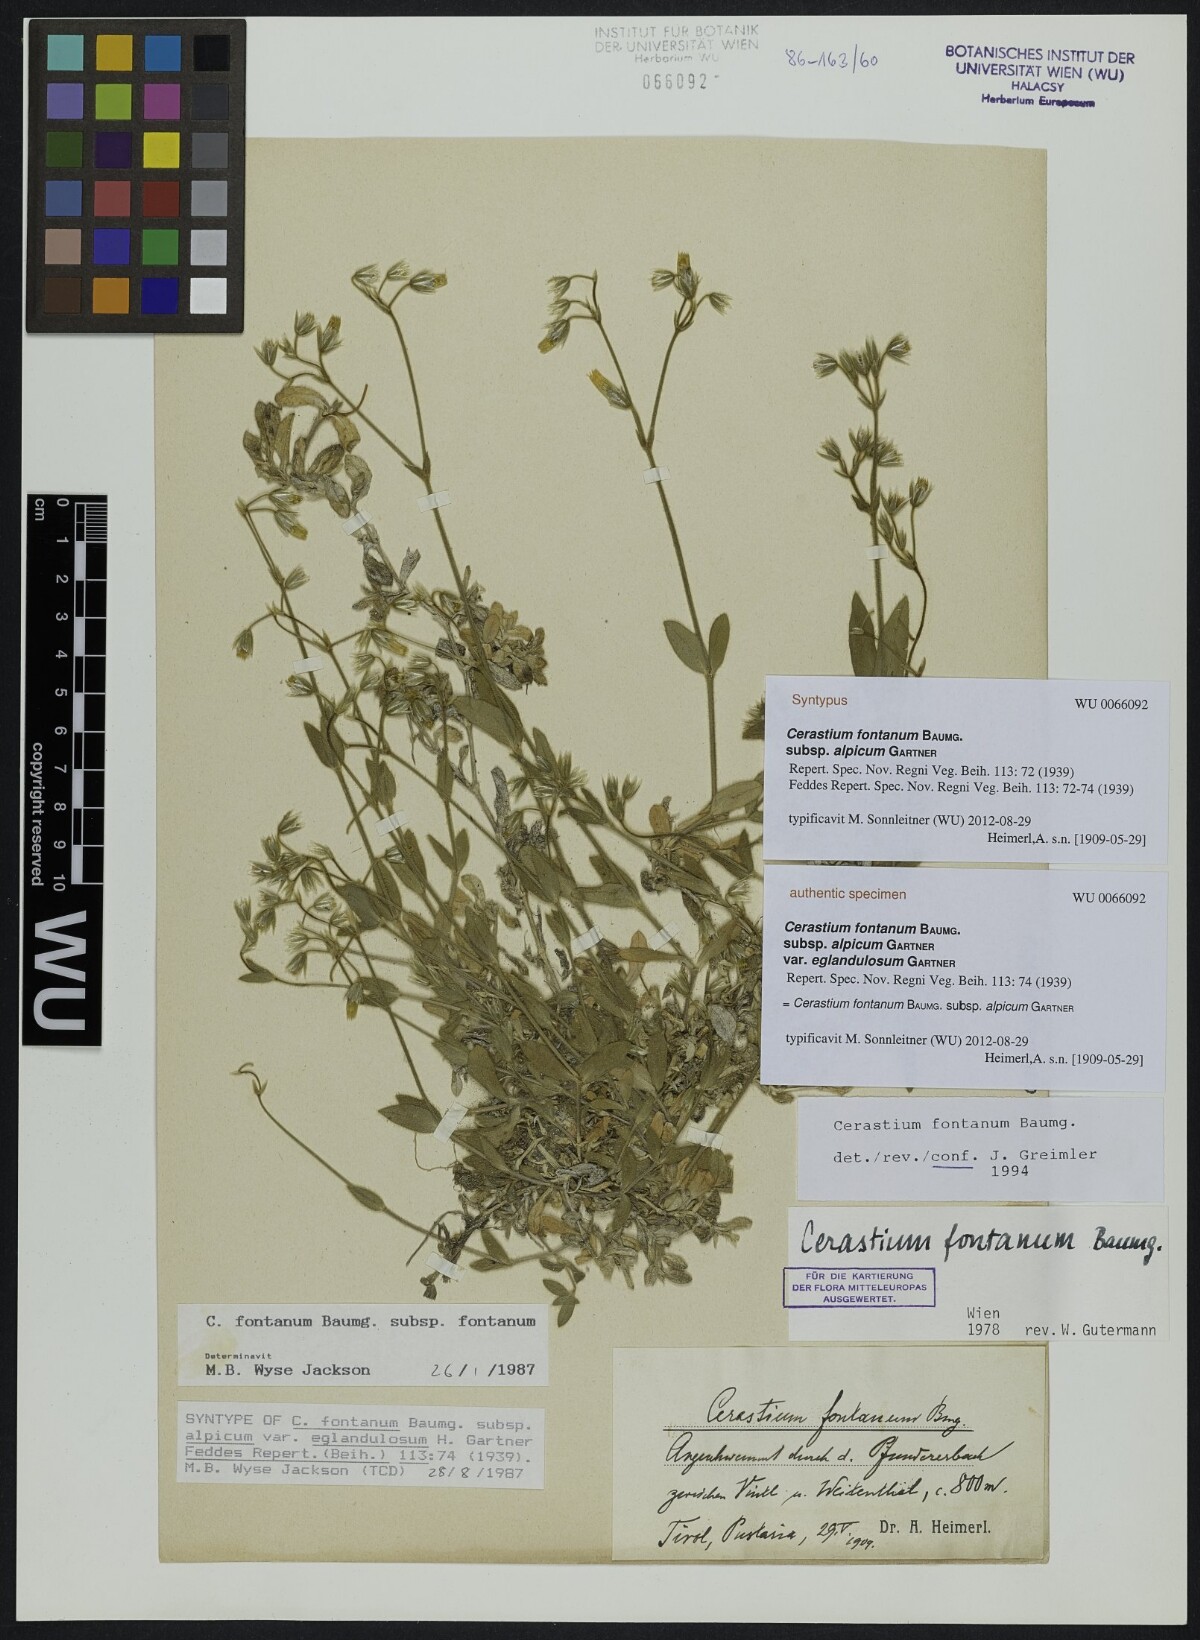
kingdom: Plantae
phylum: Tracheophyta
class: Magnoliopsida
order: Caryophyllales
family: Caryophyllaceae
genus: Cerastium
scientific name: Cerastium fontanum
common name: Common mouse-ear
